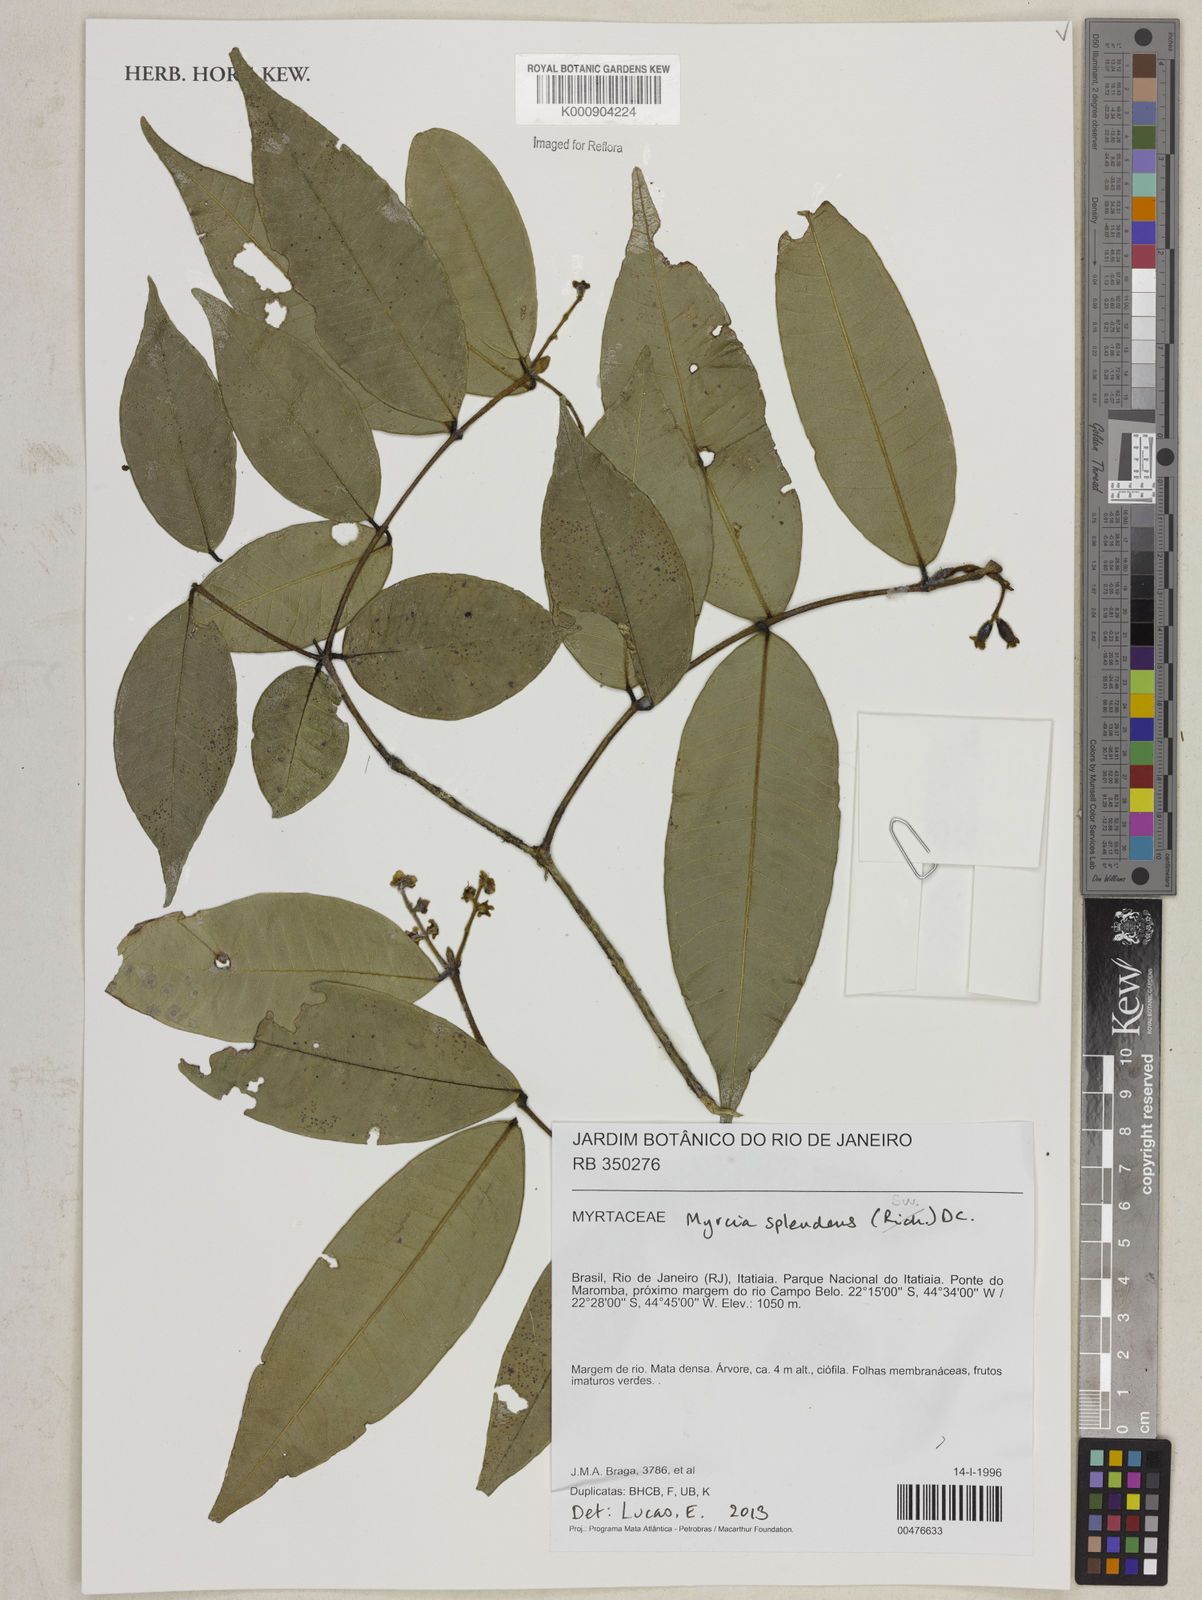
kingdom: Plantae
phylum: Tracheophyta
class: Magnoliopsida
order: Myrtales
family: Myrtaceae
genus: Myrcia
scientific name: Myrcia splendens
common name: Surinam cherry
